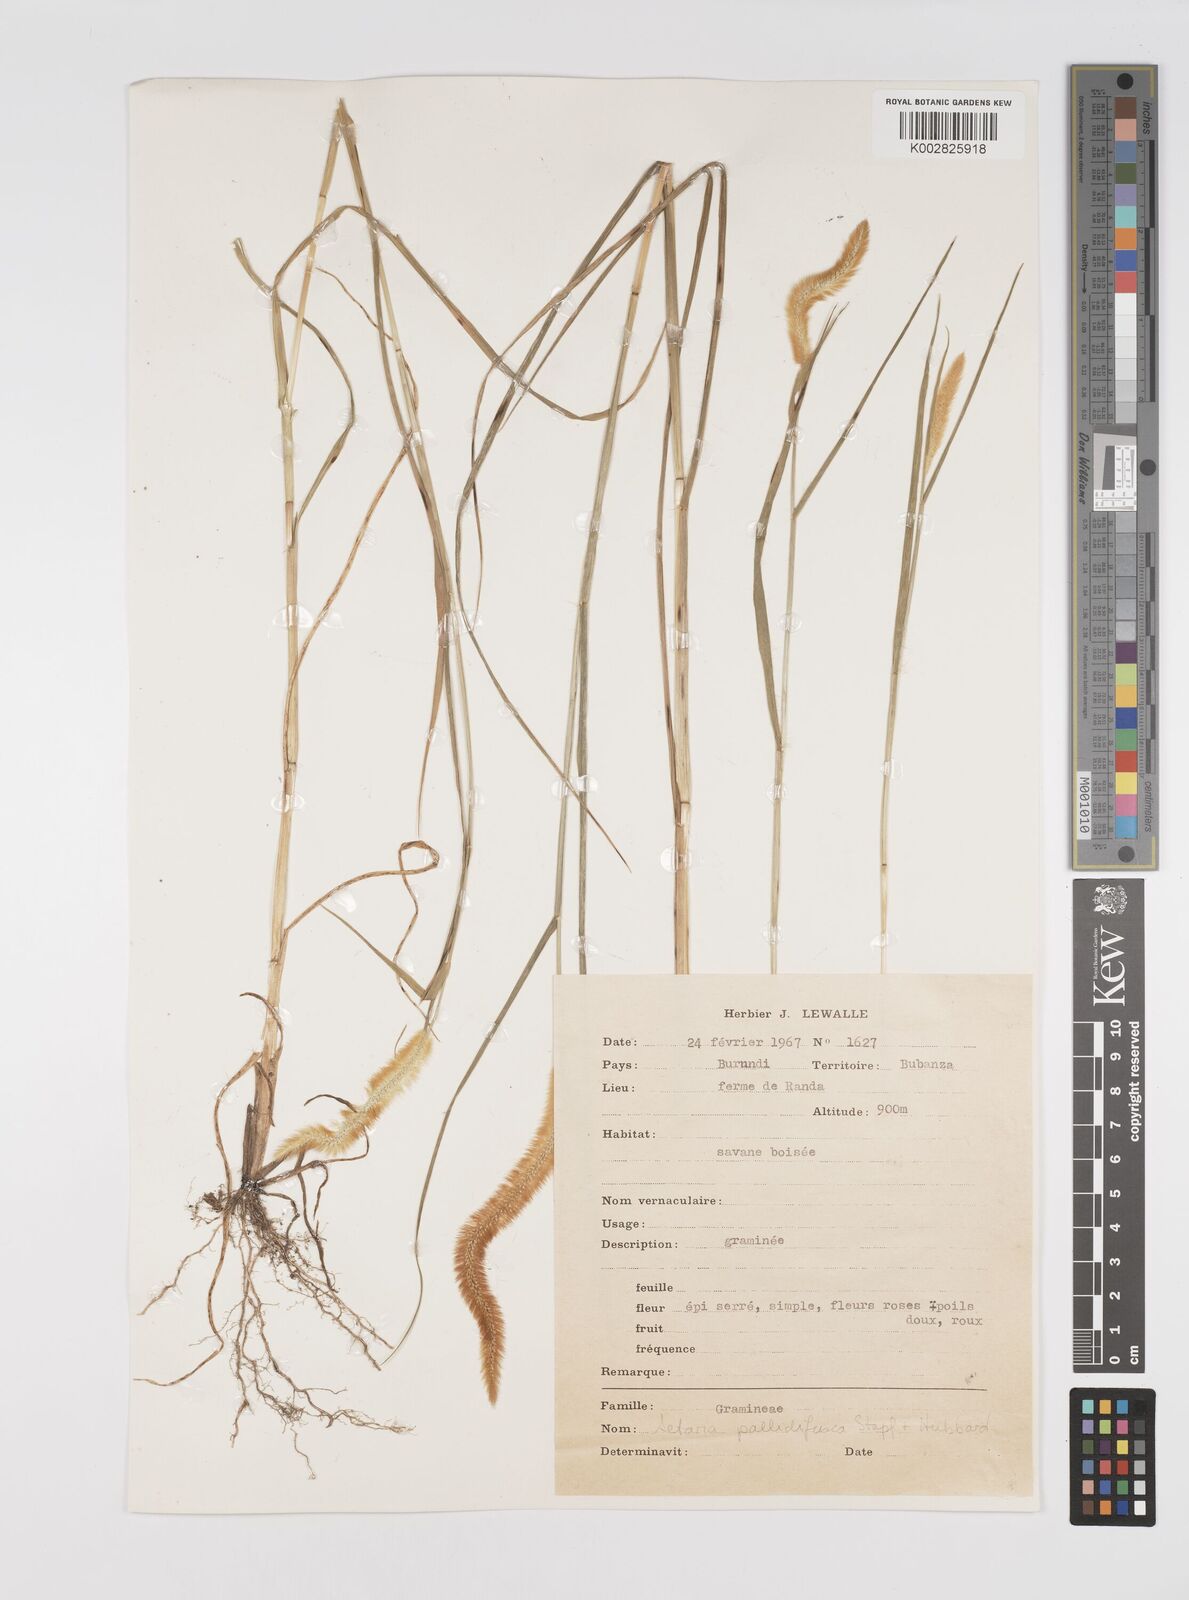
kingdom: Plantae
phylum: Tracheophyta
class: Liliopsida
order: Poales
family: Poaceae
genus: Setaria
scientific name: Setaria pumila
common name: Yellow bristle-grass
